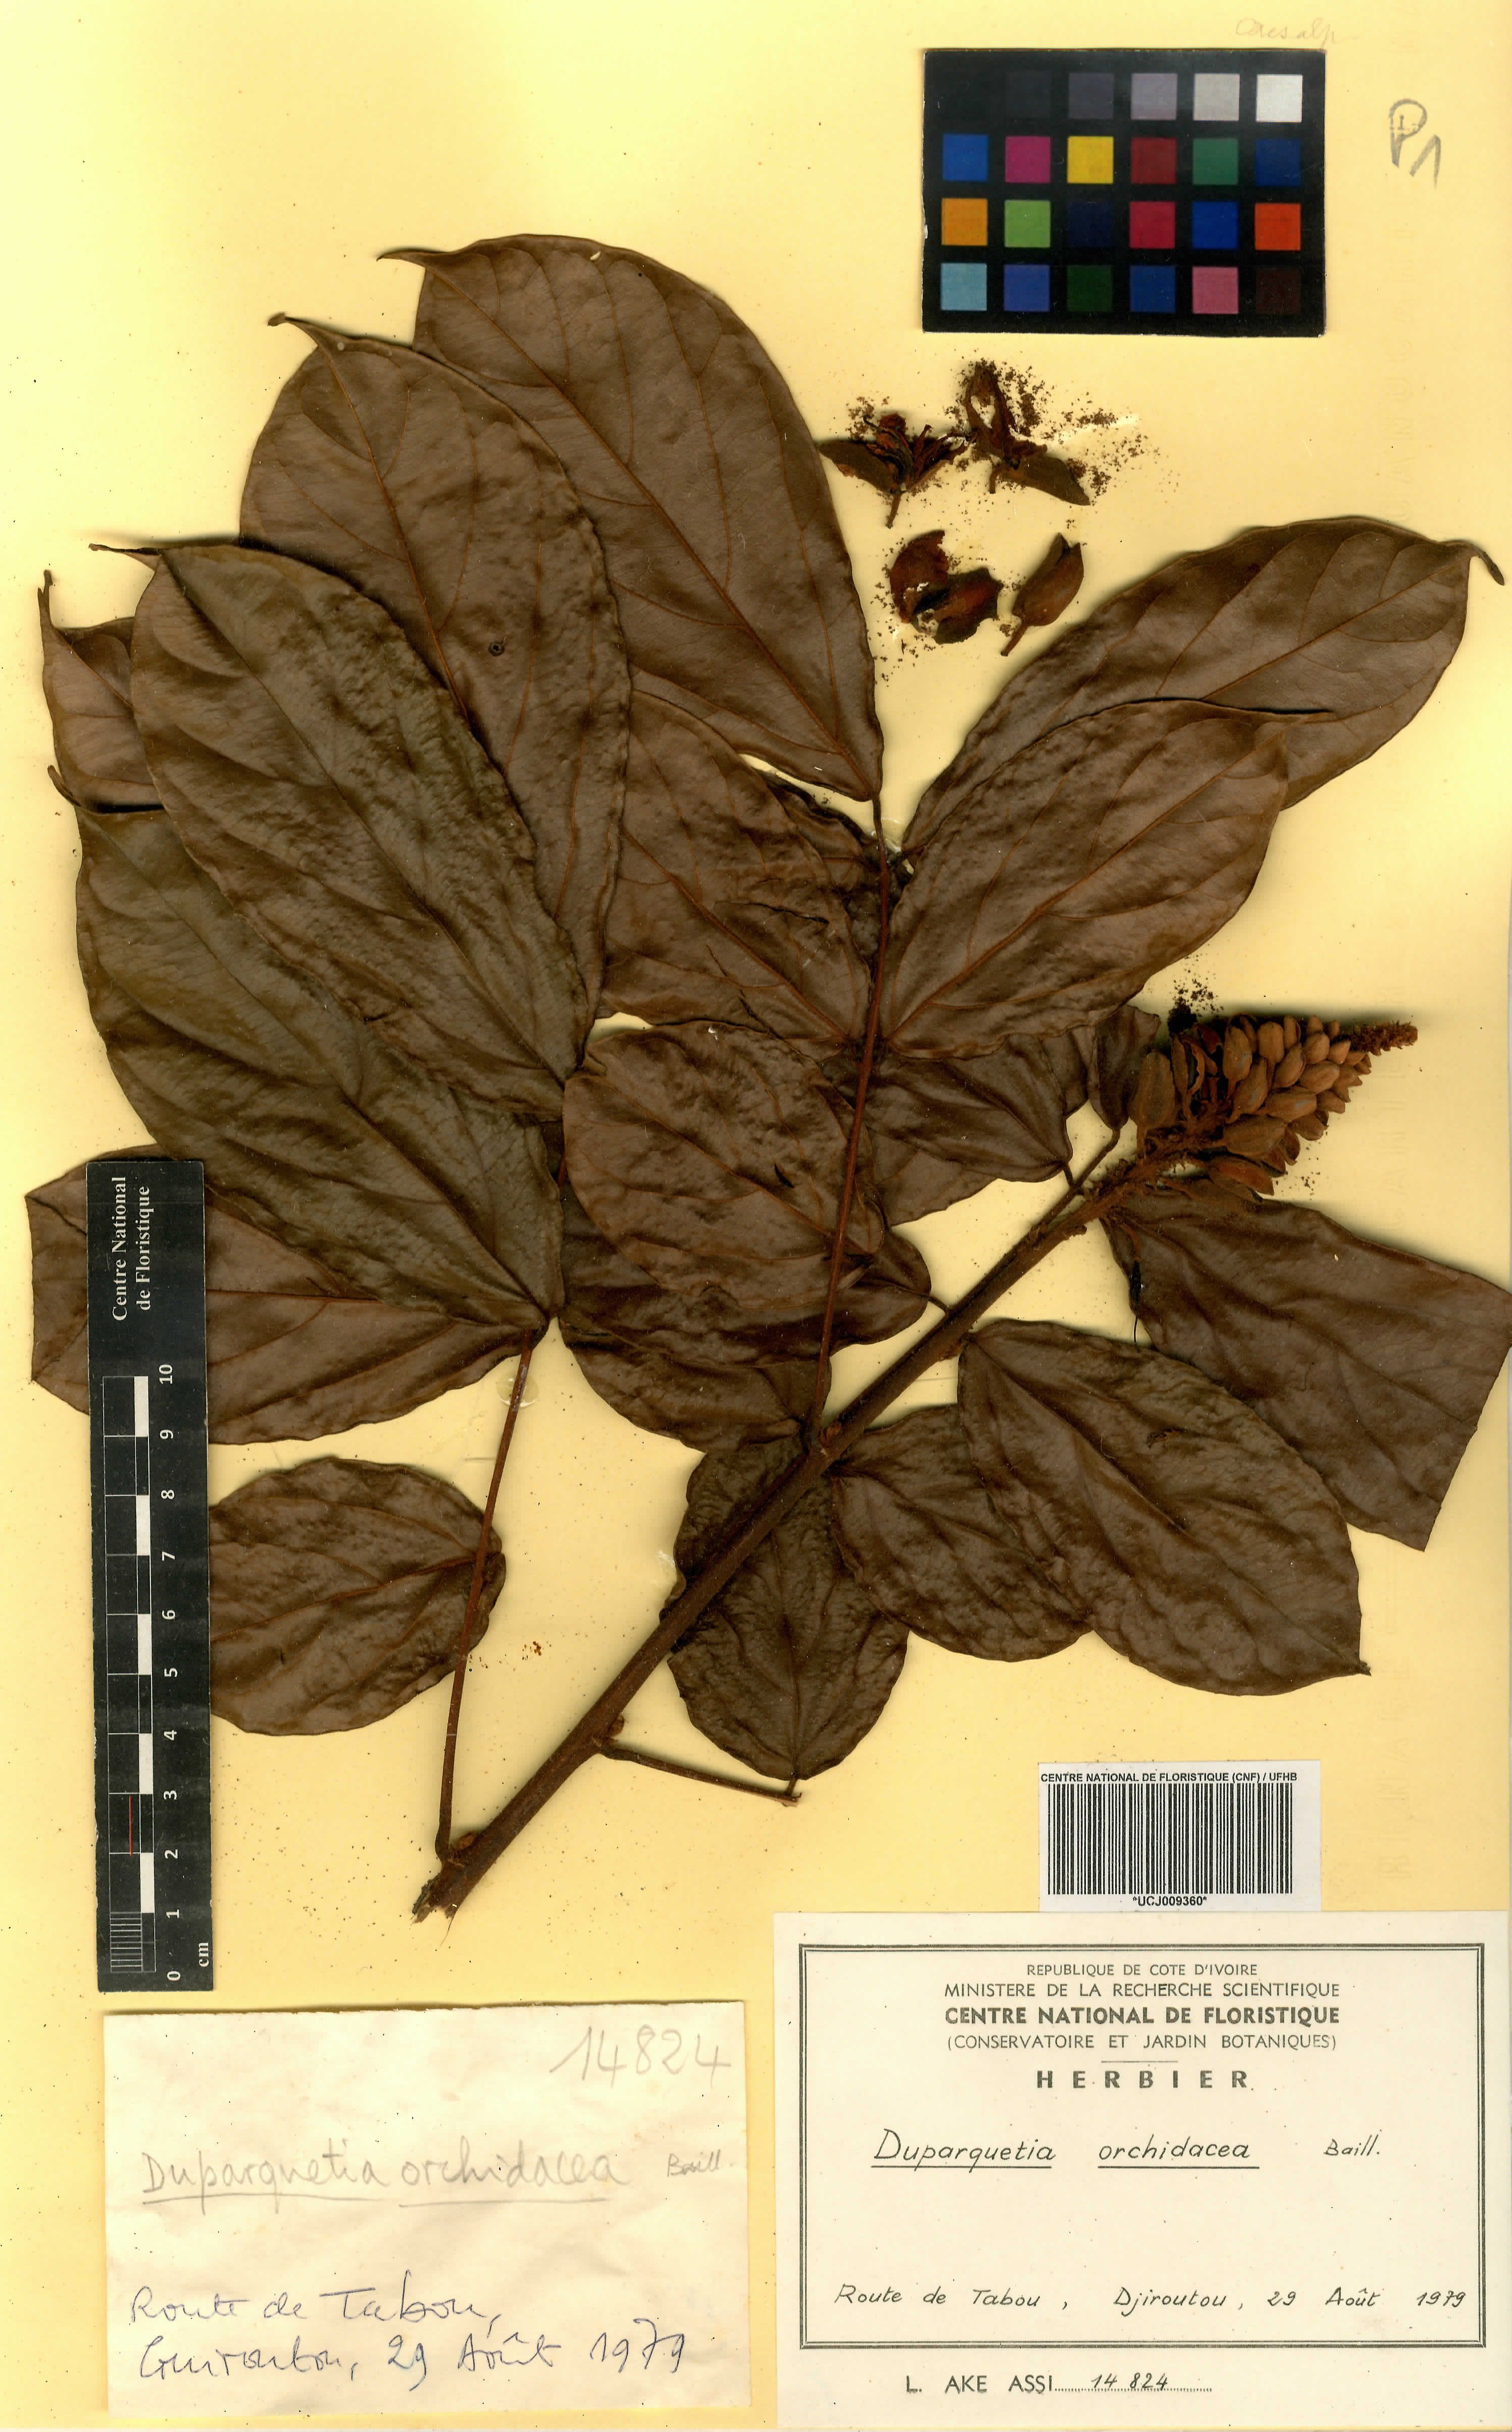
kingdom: Plantae
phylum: Tracheophyta
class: Magnoliopsida
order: Fabales
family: Fabaceae
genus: Duparquetia
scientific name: Duparquetia orchidacea
